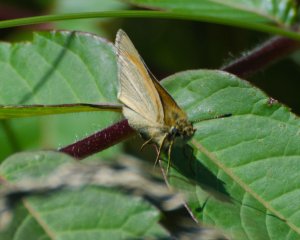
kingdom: Animalia
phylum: Arthropoda
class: Insecta
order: Lepidoptera
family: Hesperiidae
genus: Thymelicus
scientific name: Thymelicus lineola
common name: European Skipper
